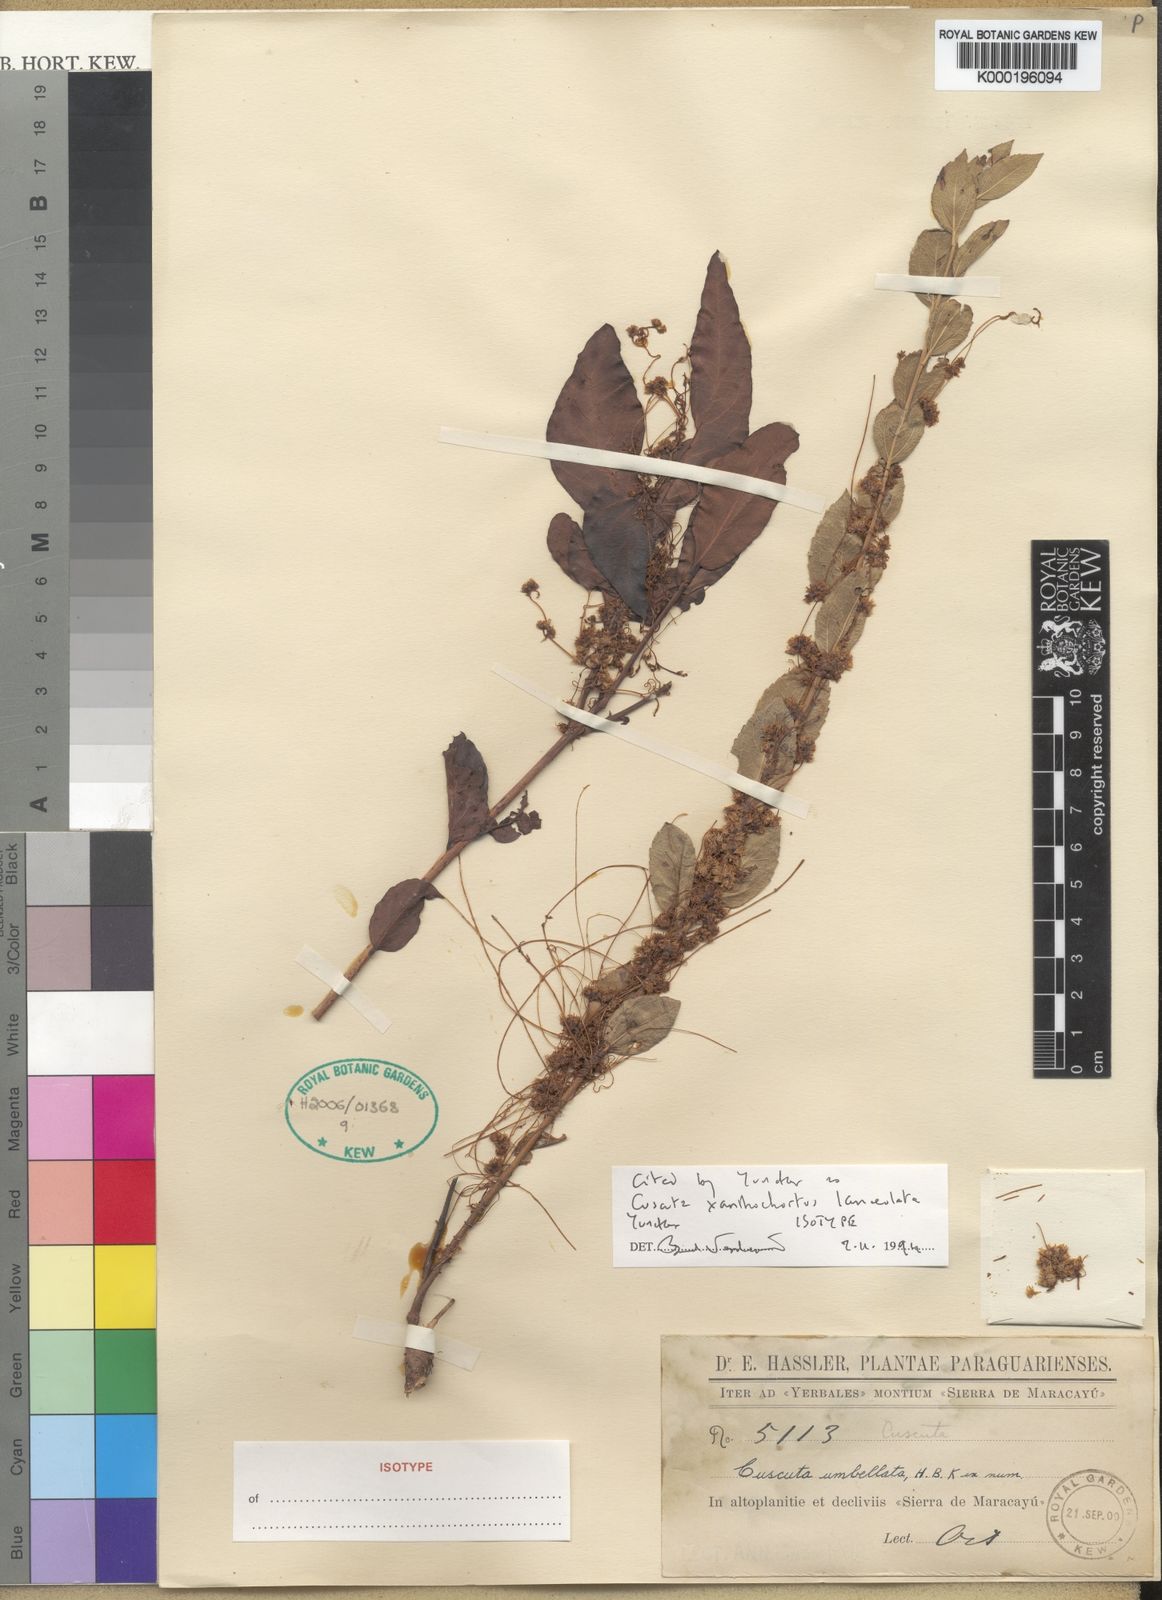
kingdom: Plantae
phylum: Tracheophyta
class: Magnoliopsida
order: Solanales
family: Convolvulaceae
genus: Cuscuta
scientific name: Cuscuta xanthochortos
